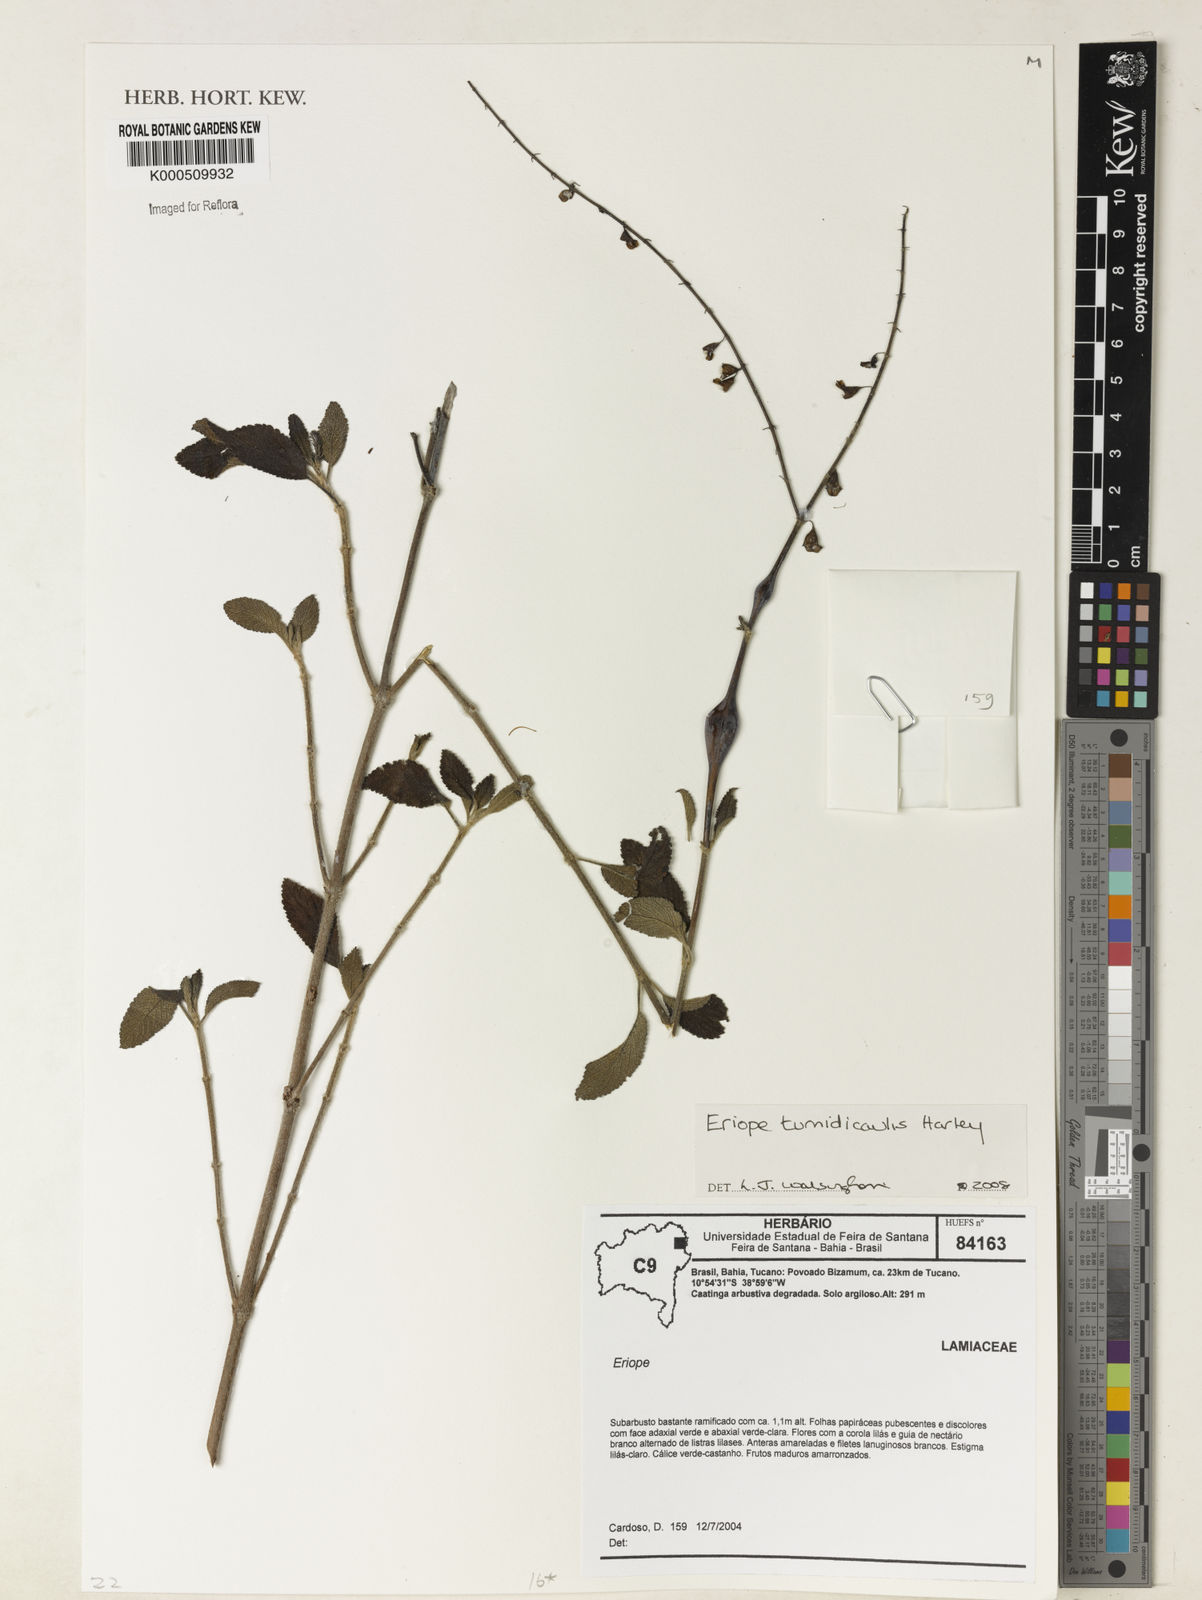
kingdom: Plantae
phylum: Tracheophyta
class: Magnoliopsida
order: Lamiales
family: Lamiaceae
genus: Eriope
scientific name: Eriope tumidicaulis
